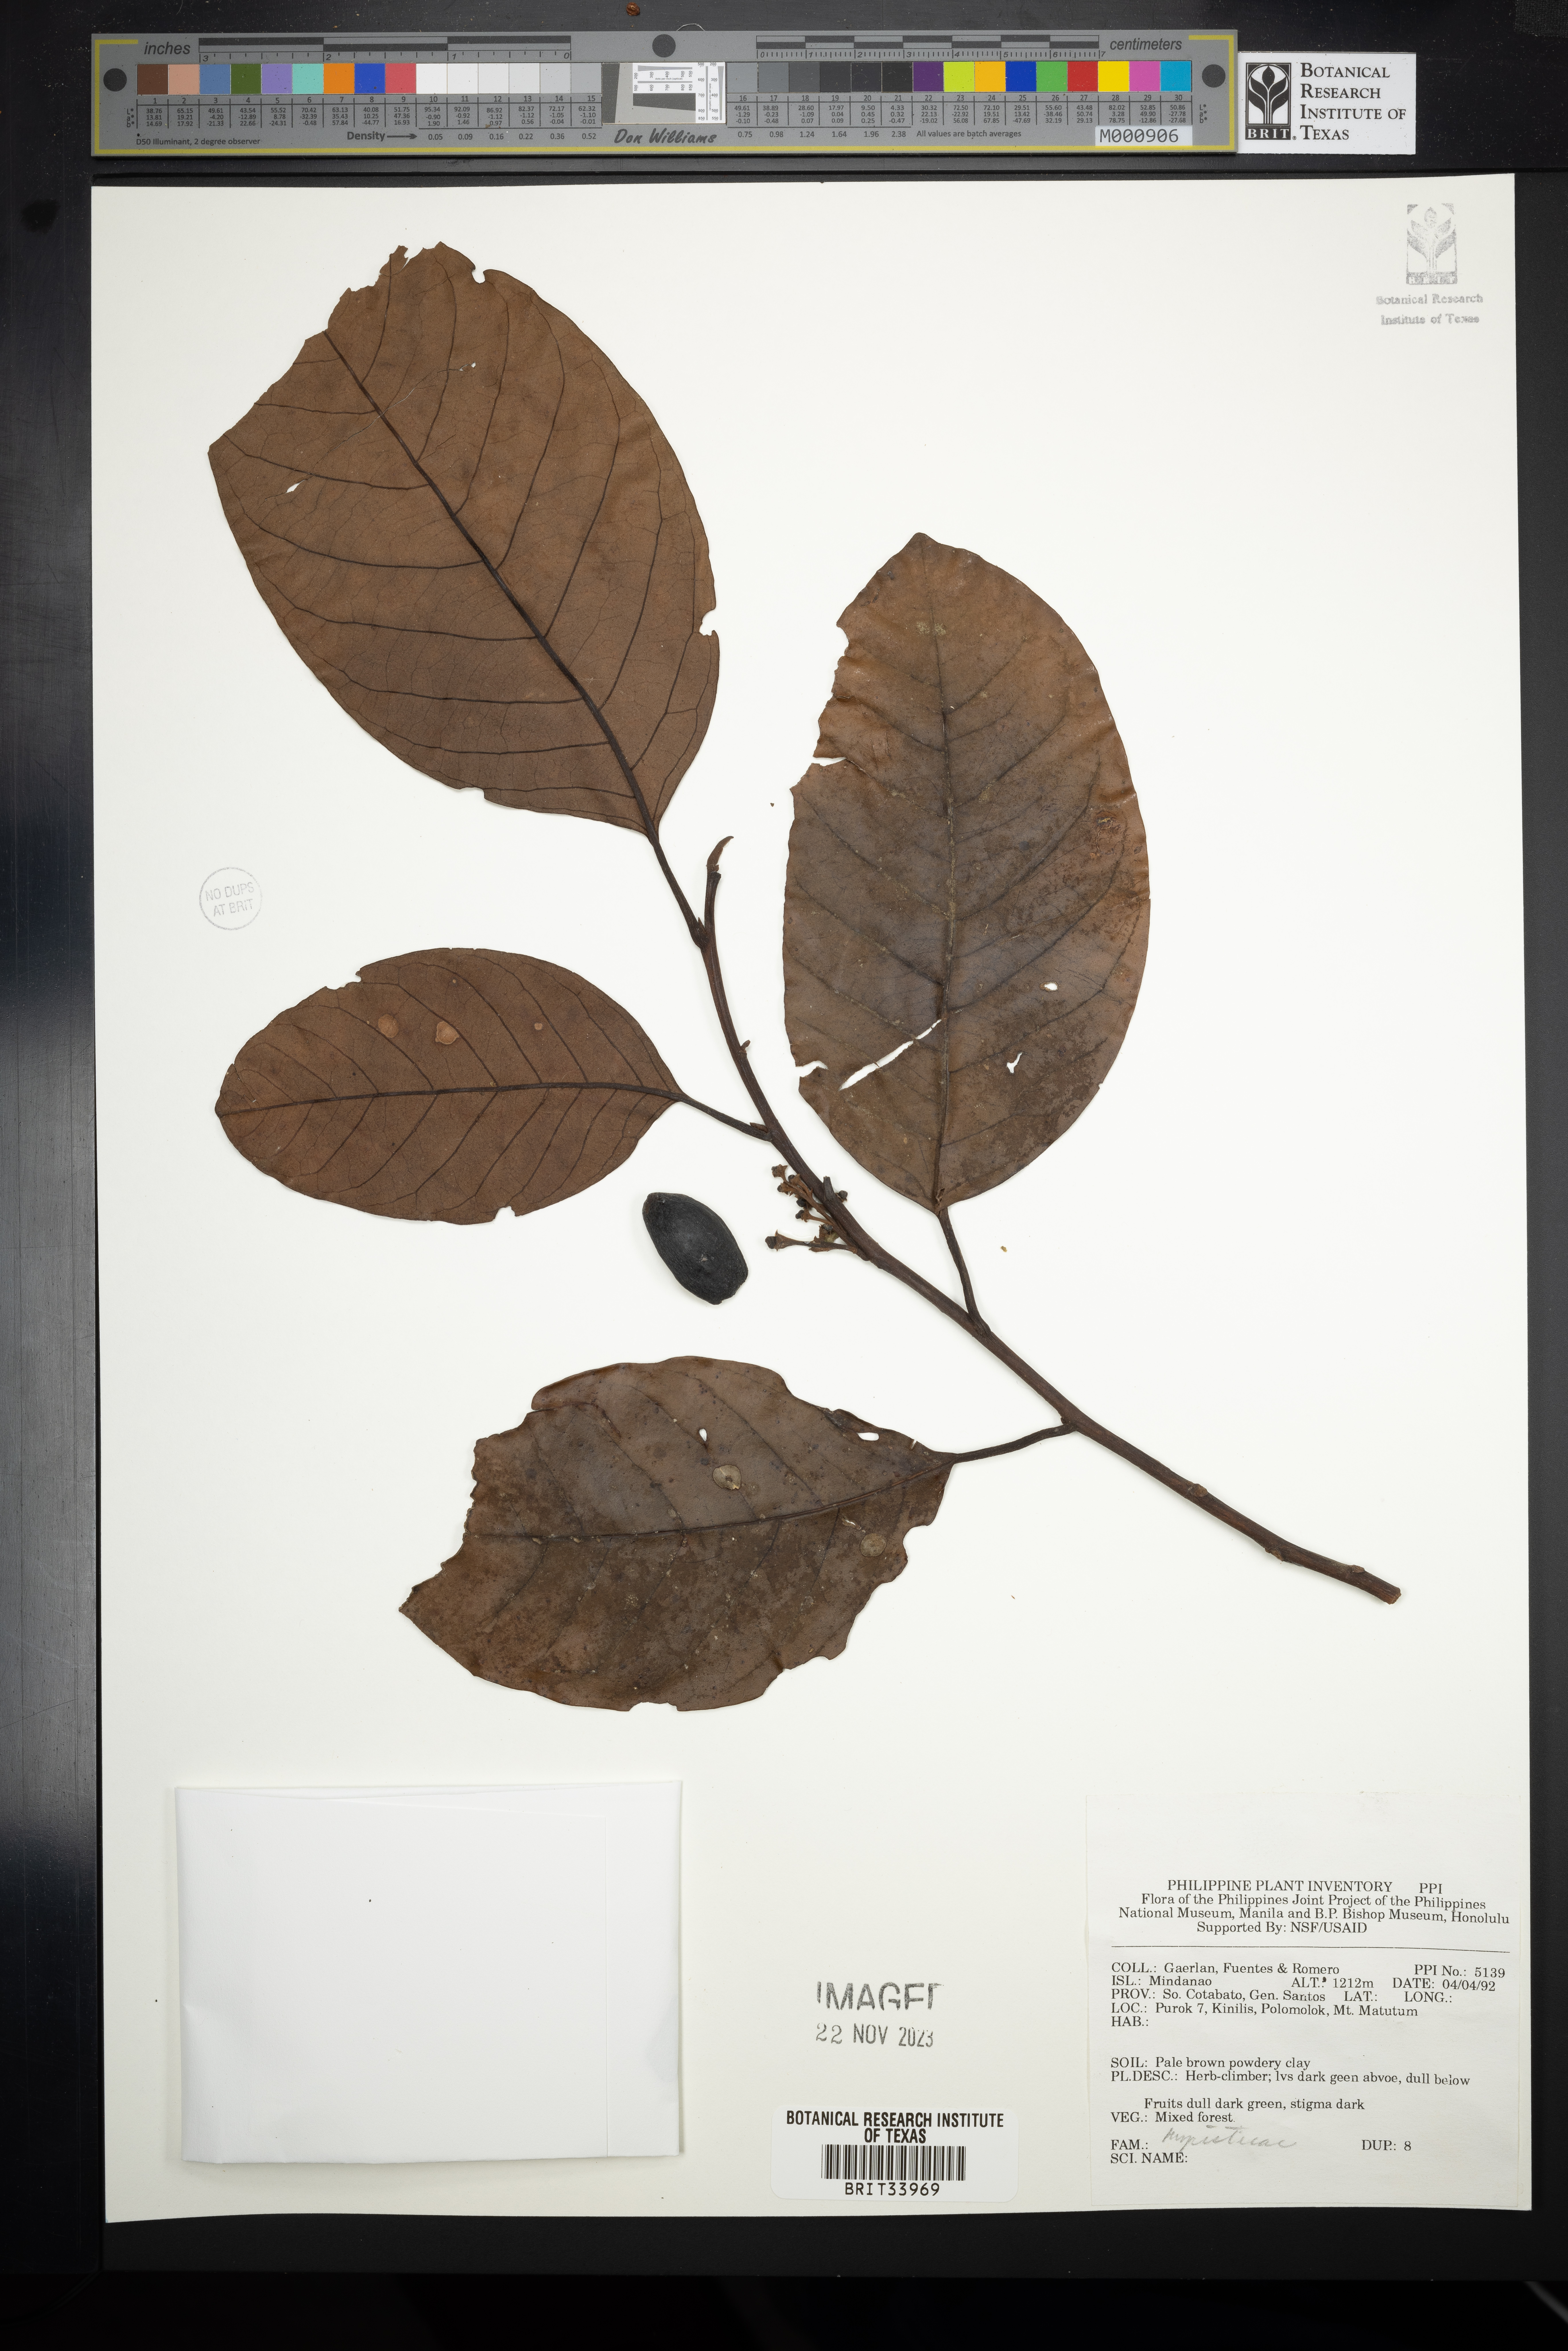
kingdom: Plantae
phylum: Tracheophyta
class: Magnoliopsida
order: Magnoliales
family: Myristicaceae
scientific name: Myristicaceae
